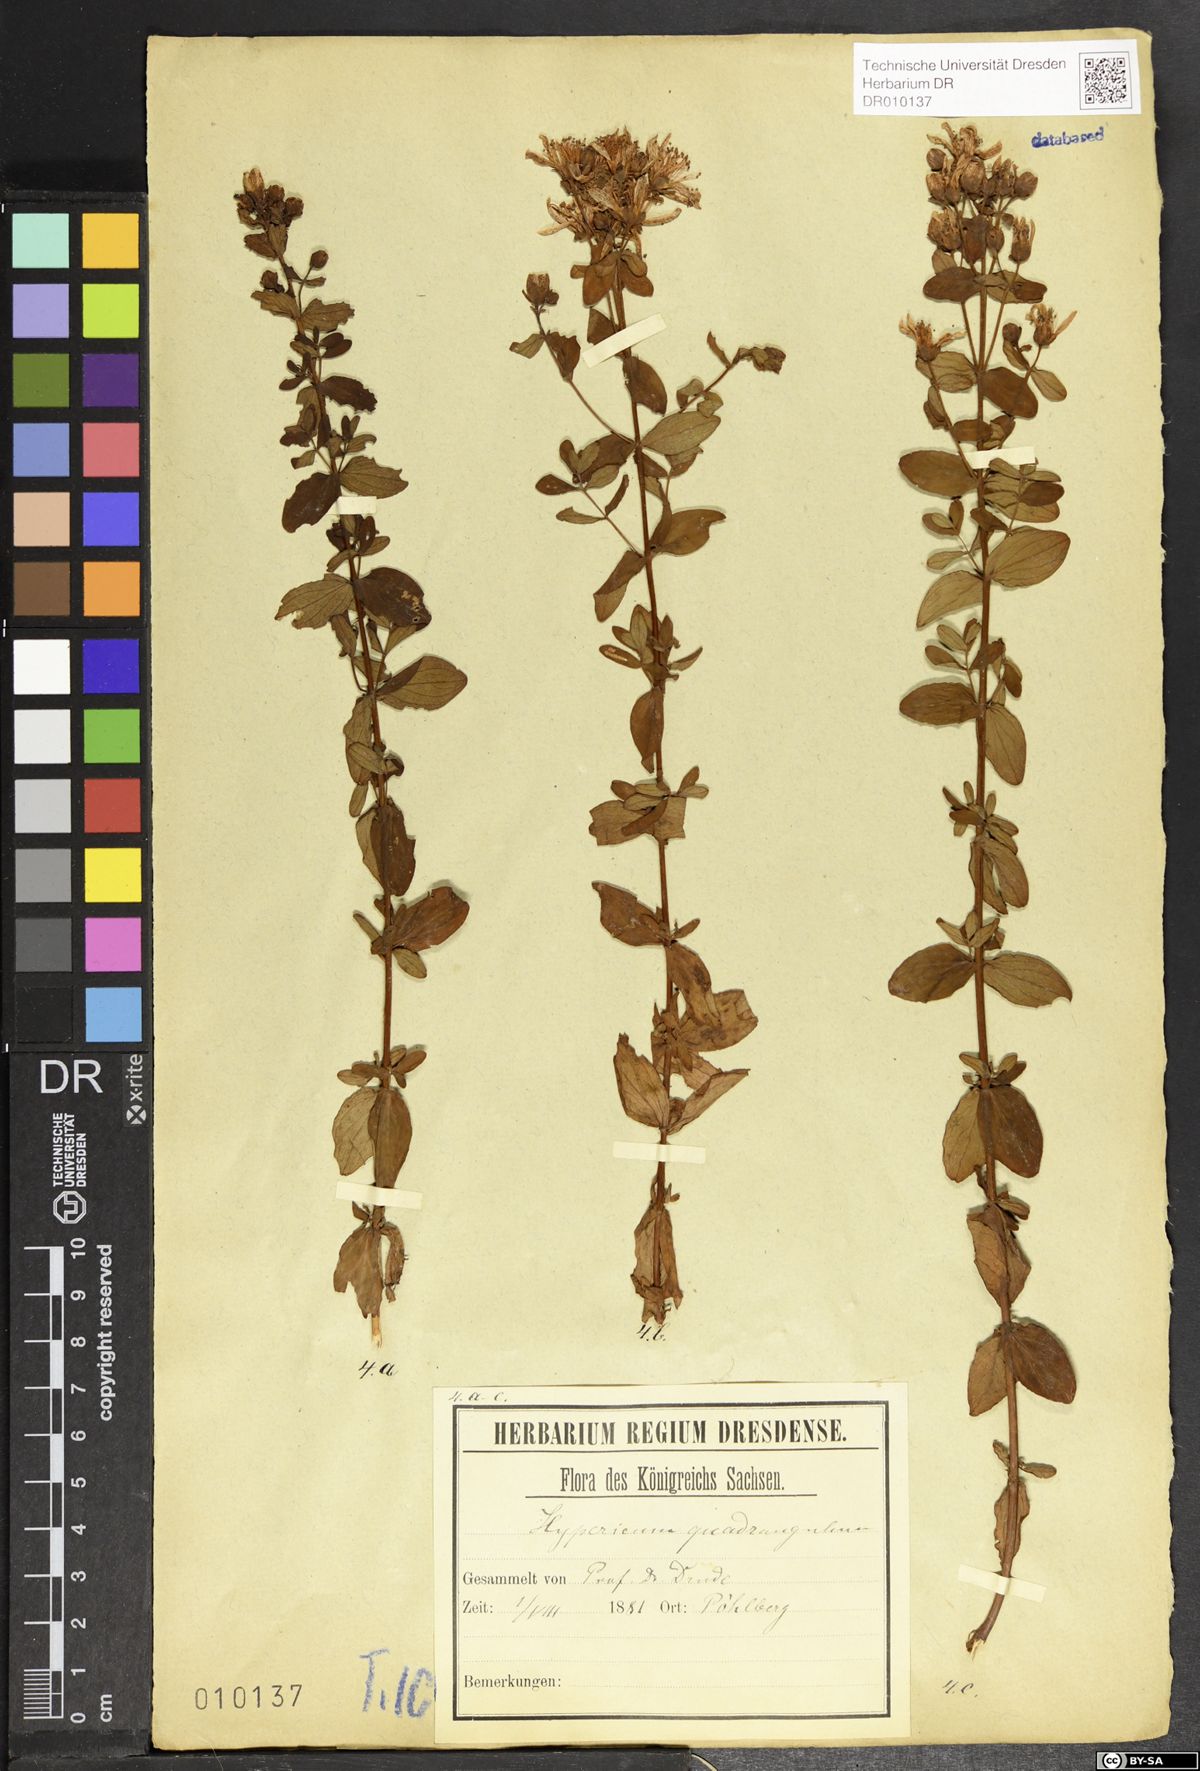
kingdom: Plantae
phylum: Tracheophyta
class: Magnoliopsida
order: Malpighiales
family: Hypericaceae
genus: Hypericum
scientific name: Hypericum maculatum
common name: Imperforate st. john's-wort
